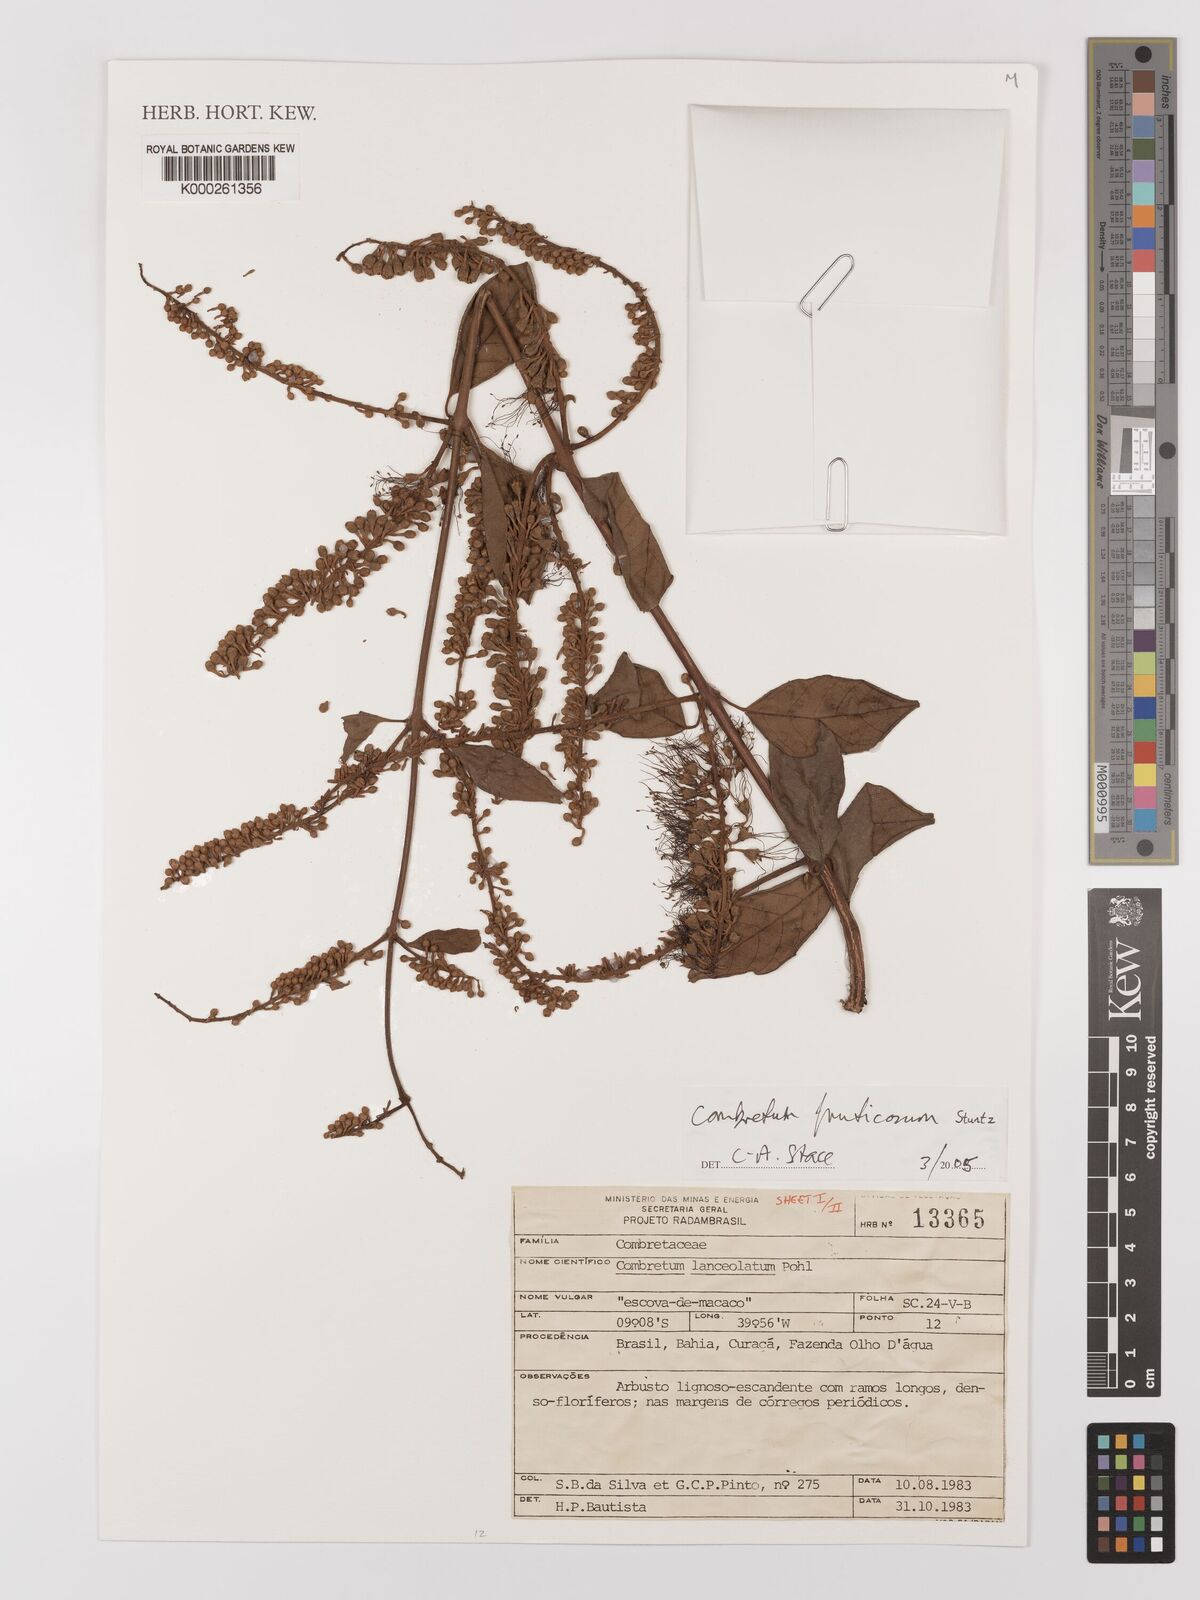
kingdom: Plantae
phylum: Tracheophyta
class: Magnoliopsida
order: Myrtales
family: Combretaceae
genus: Combretum
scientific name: Combretum fruticosum
